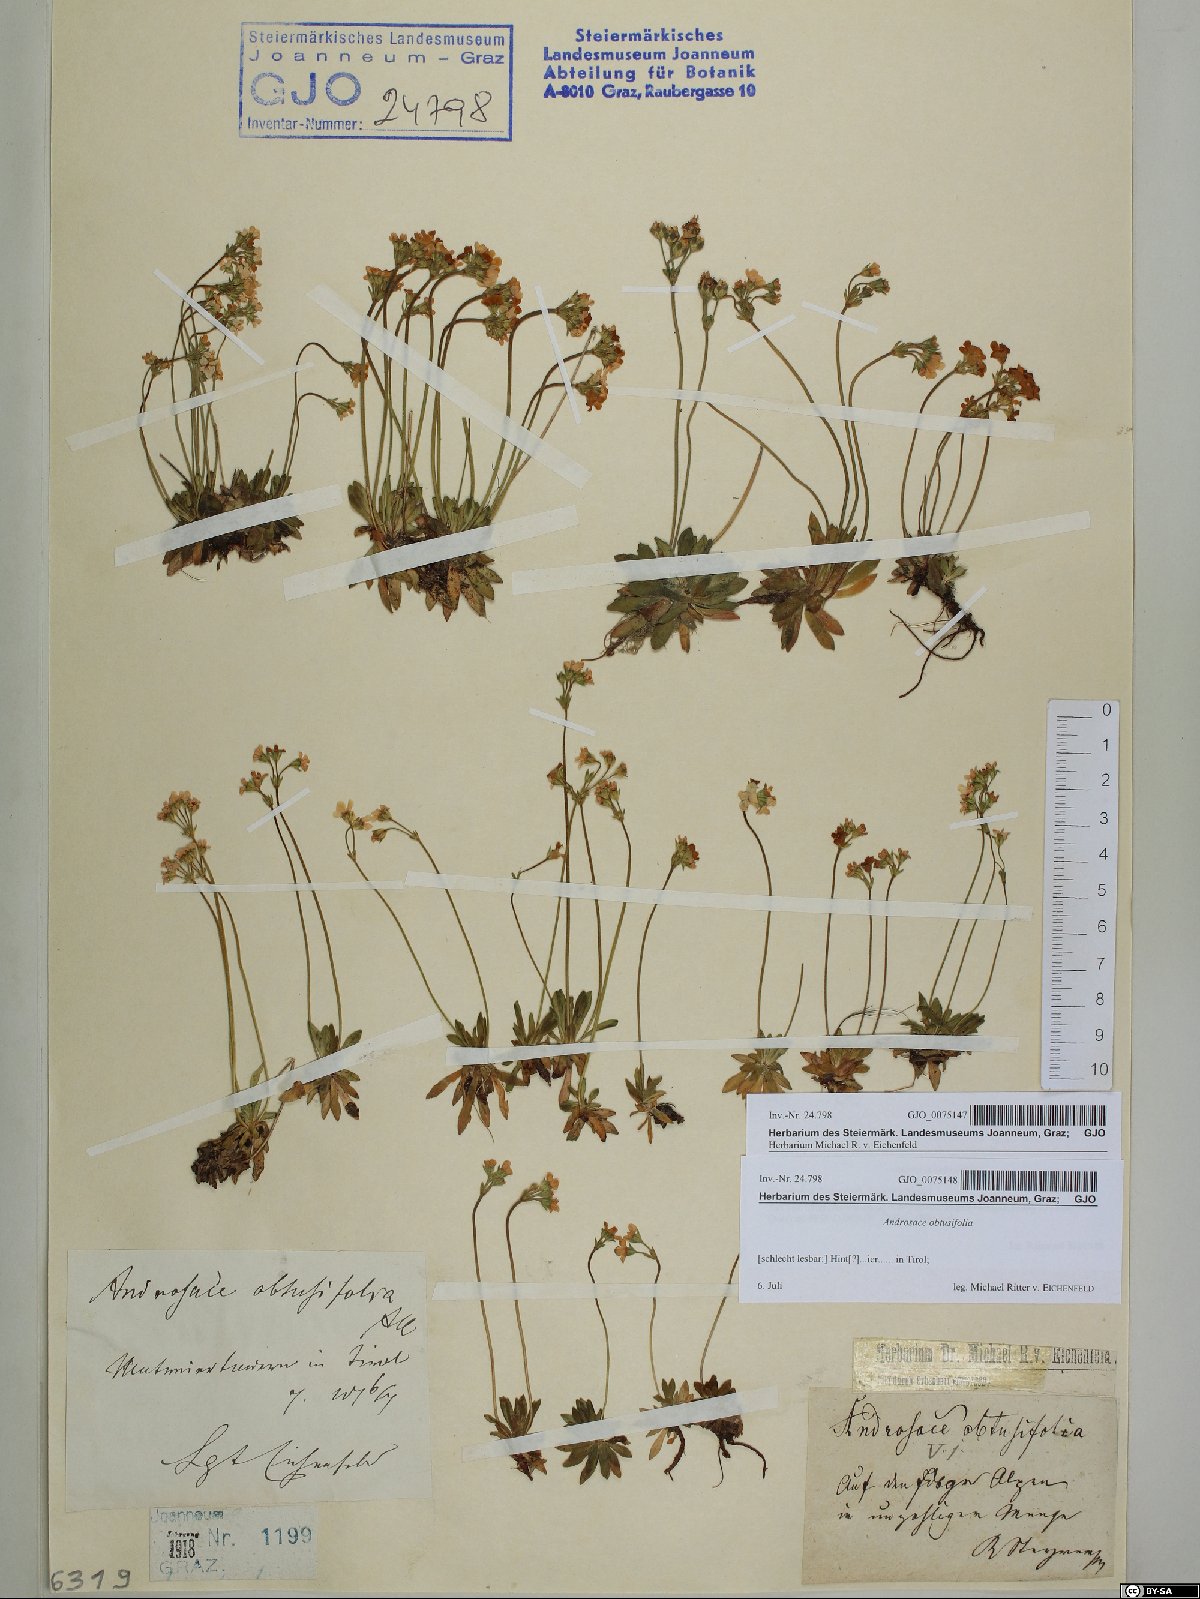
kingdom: Plantae
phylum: Tracheophyta
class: Magnoliopsida
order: Ericales
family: Primulaceae
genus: Androsace
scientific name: Androsace obtusifolia
